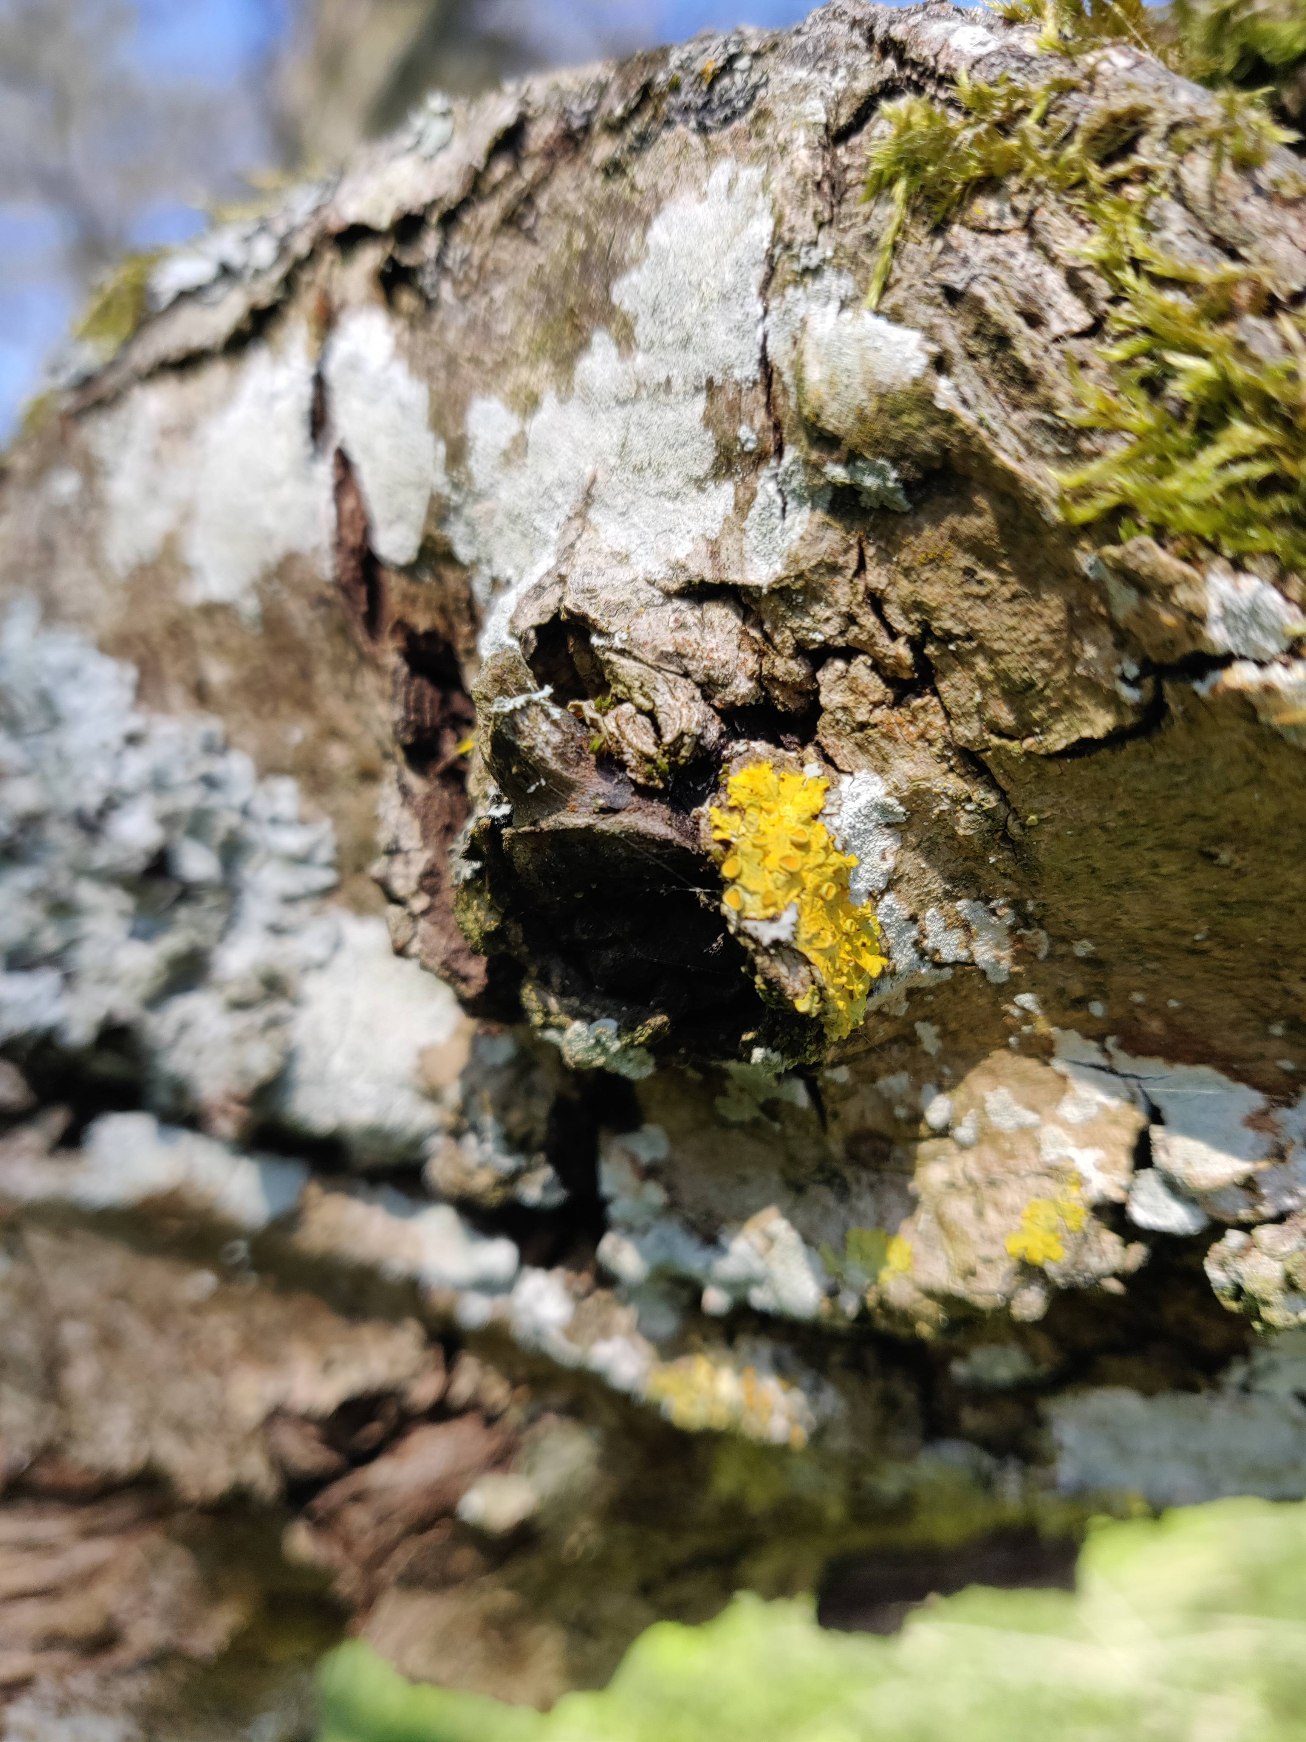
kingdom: Fungi
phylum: Ascomycota
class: Lecanoromycetes
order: Teloschistales
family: Teloschistaceae
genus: Xanthoria
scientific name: Xanthoria parietina
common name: Almindelig væggelav
